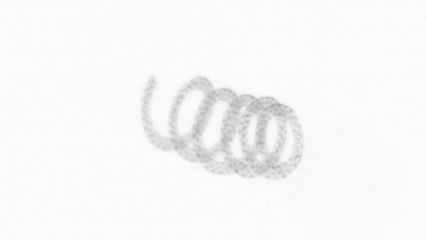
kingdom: Chromista
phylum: Ochrophyta
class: Bacillariophyceae
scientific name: Bacillariophyceae
